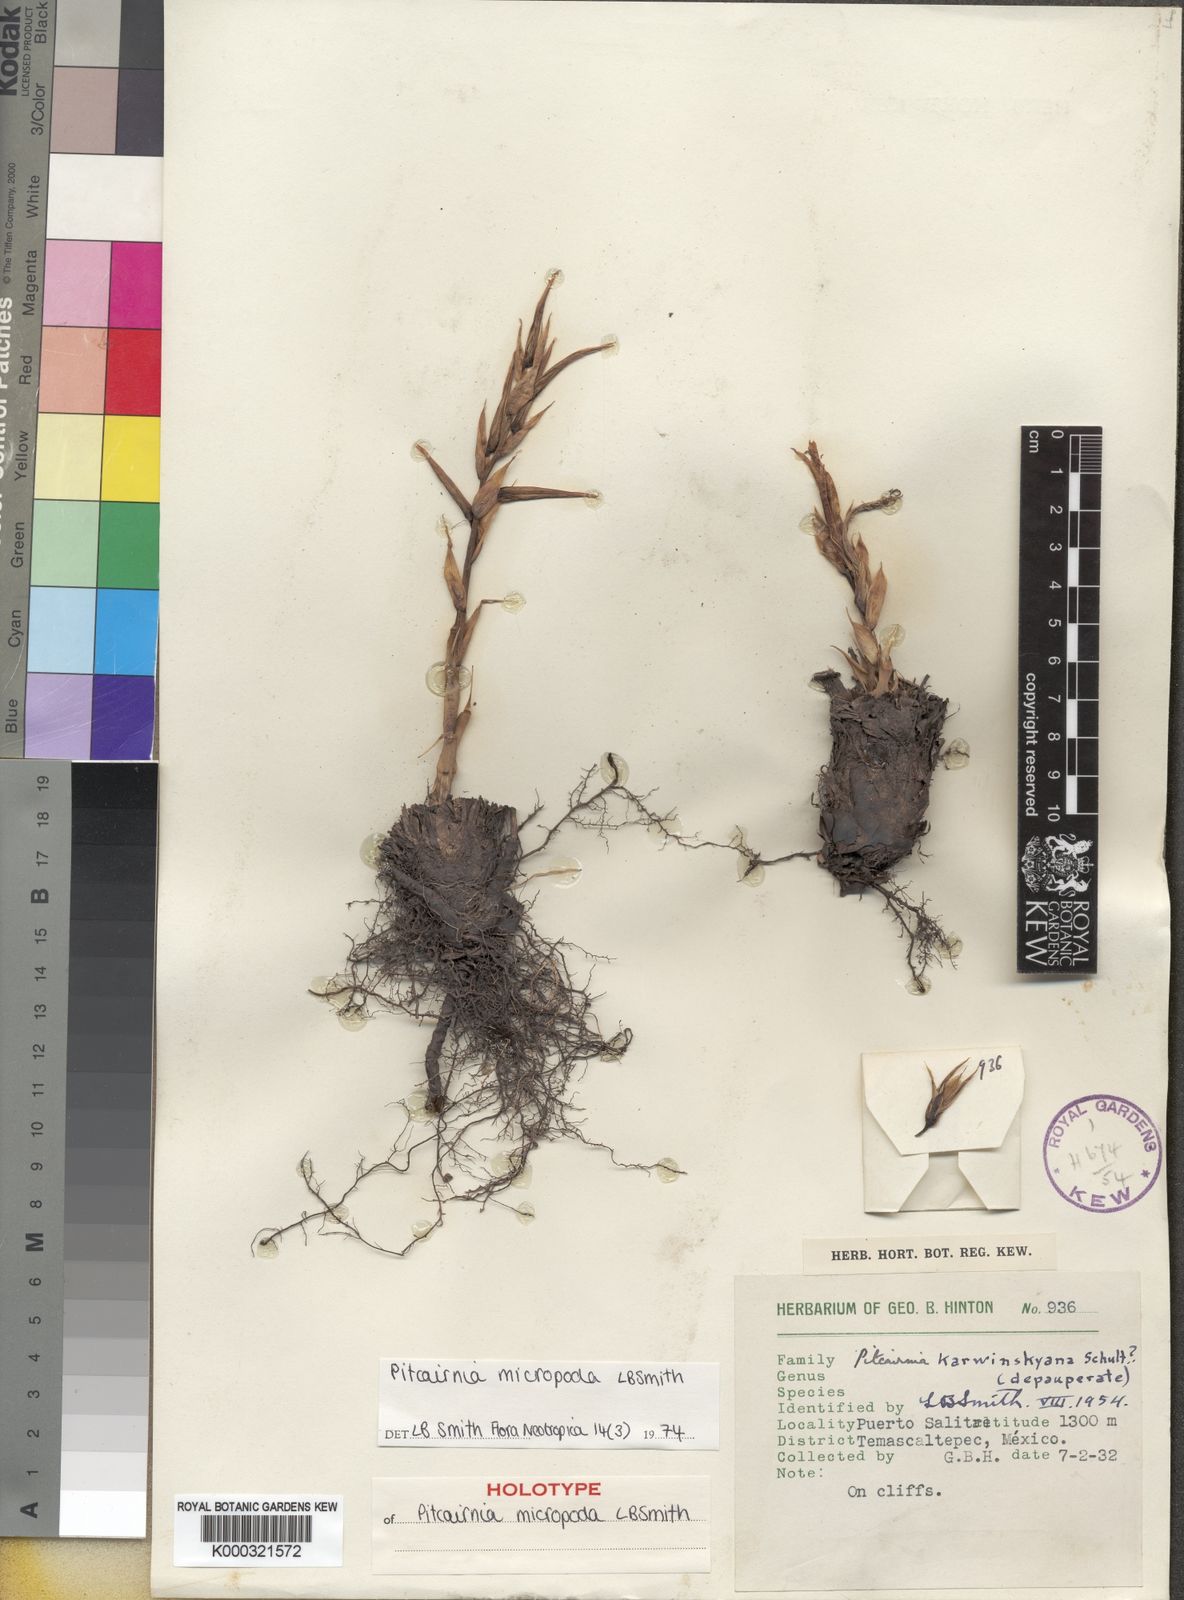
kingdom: Plantae
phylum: Tracheophyta
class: Liliopsida
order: Poales
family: Bromeliaceae
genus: Pitcairnia
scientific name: Pitcairnia micropoda
